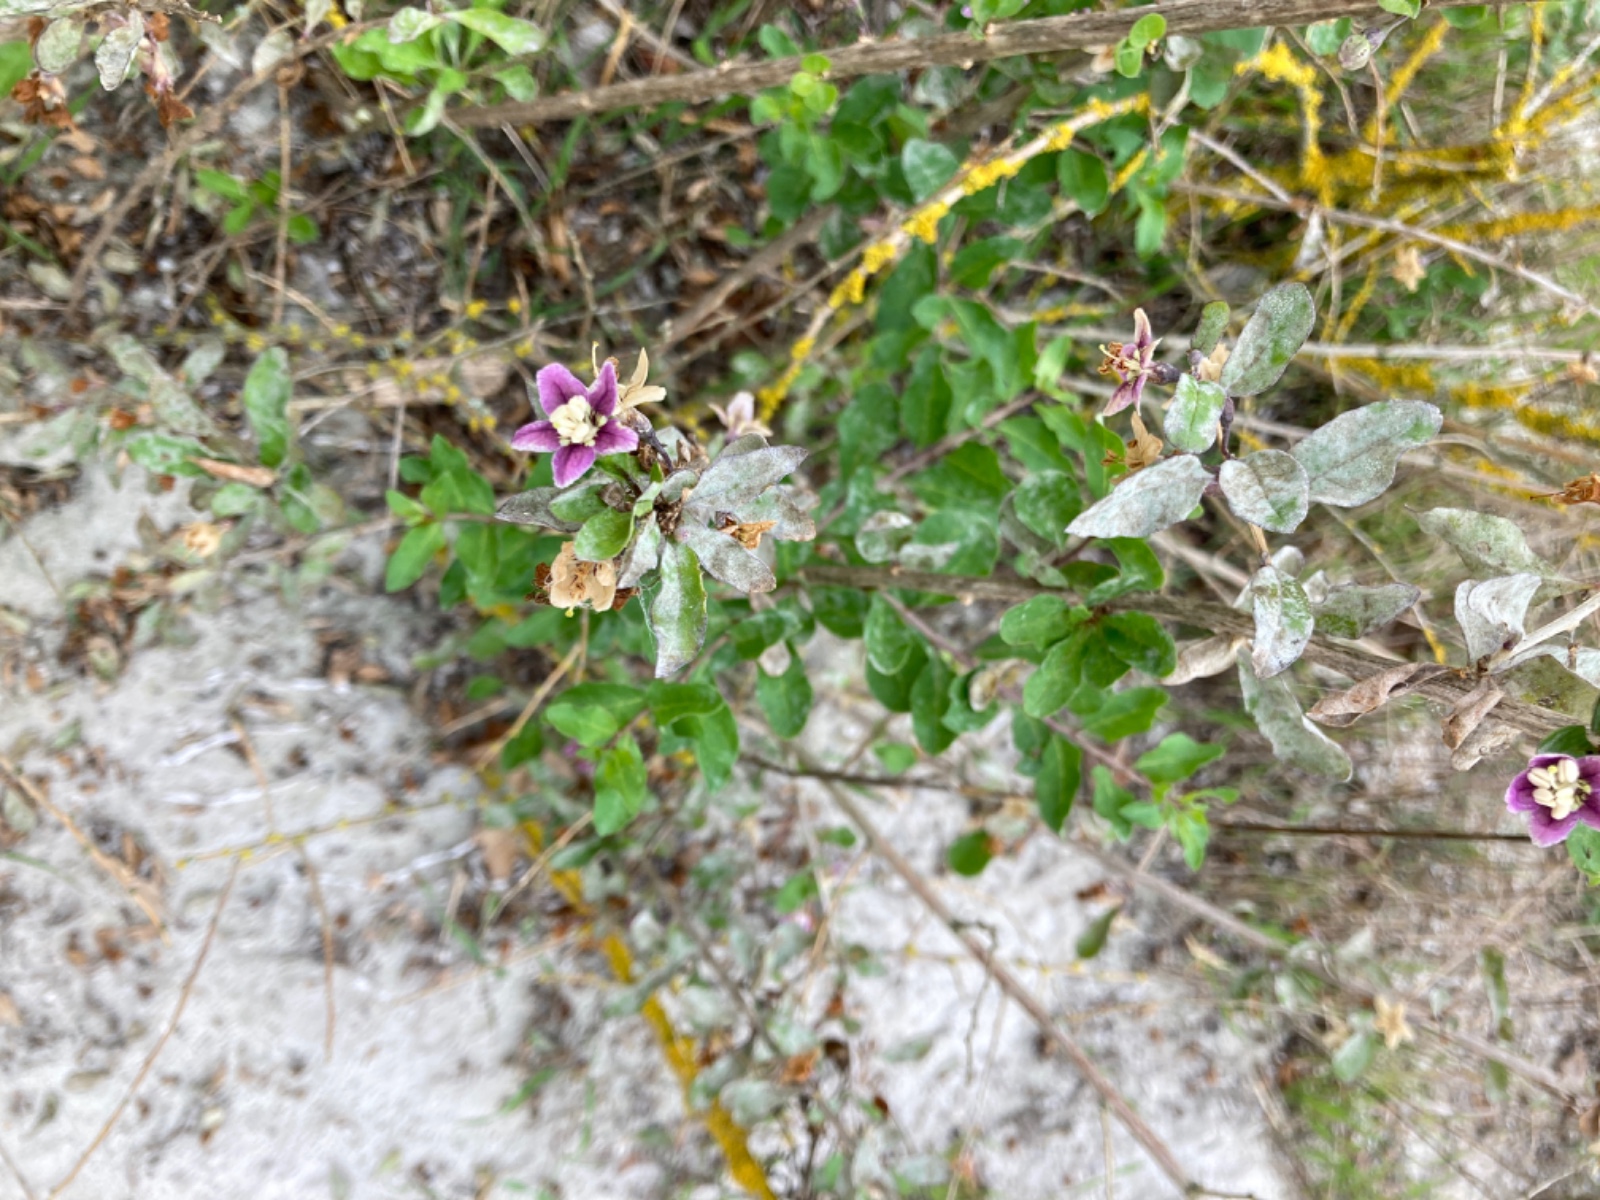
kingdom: Fungi
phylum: Ascomycota
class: Leotiomycetes
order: Helotiales
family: Erysiphaceae
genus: Erysiphe
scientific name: Erysiphe mougeotii
